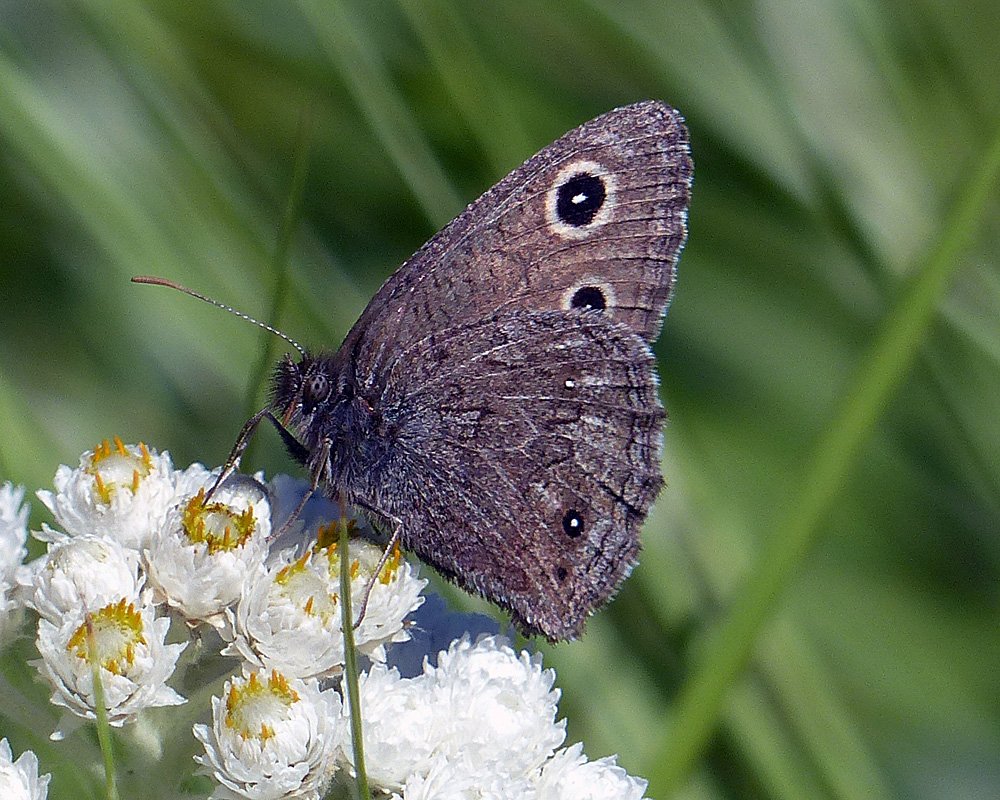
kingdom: Animalia
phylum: Arthropoda
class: Insecta
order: Lepidoptera
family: Nymphalidae
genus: Cercyonis
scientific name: Cercyonis oetus
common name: Small Wood-Nymph
